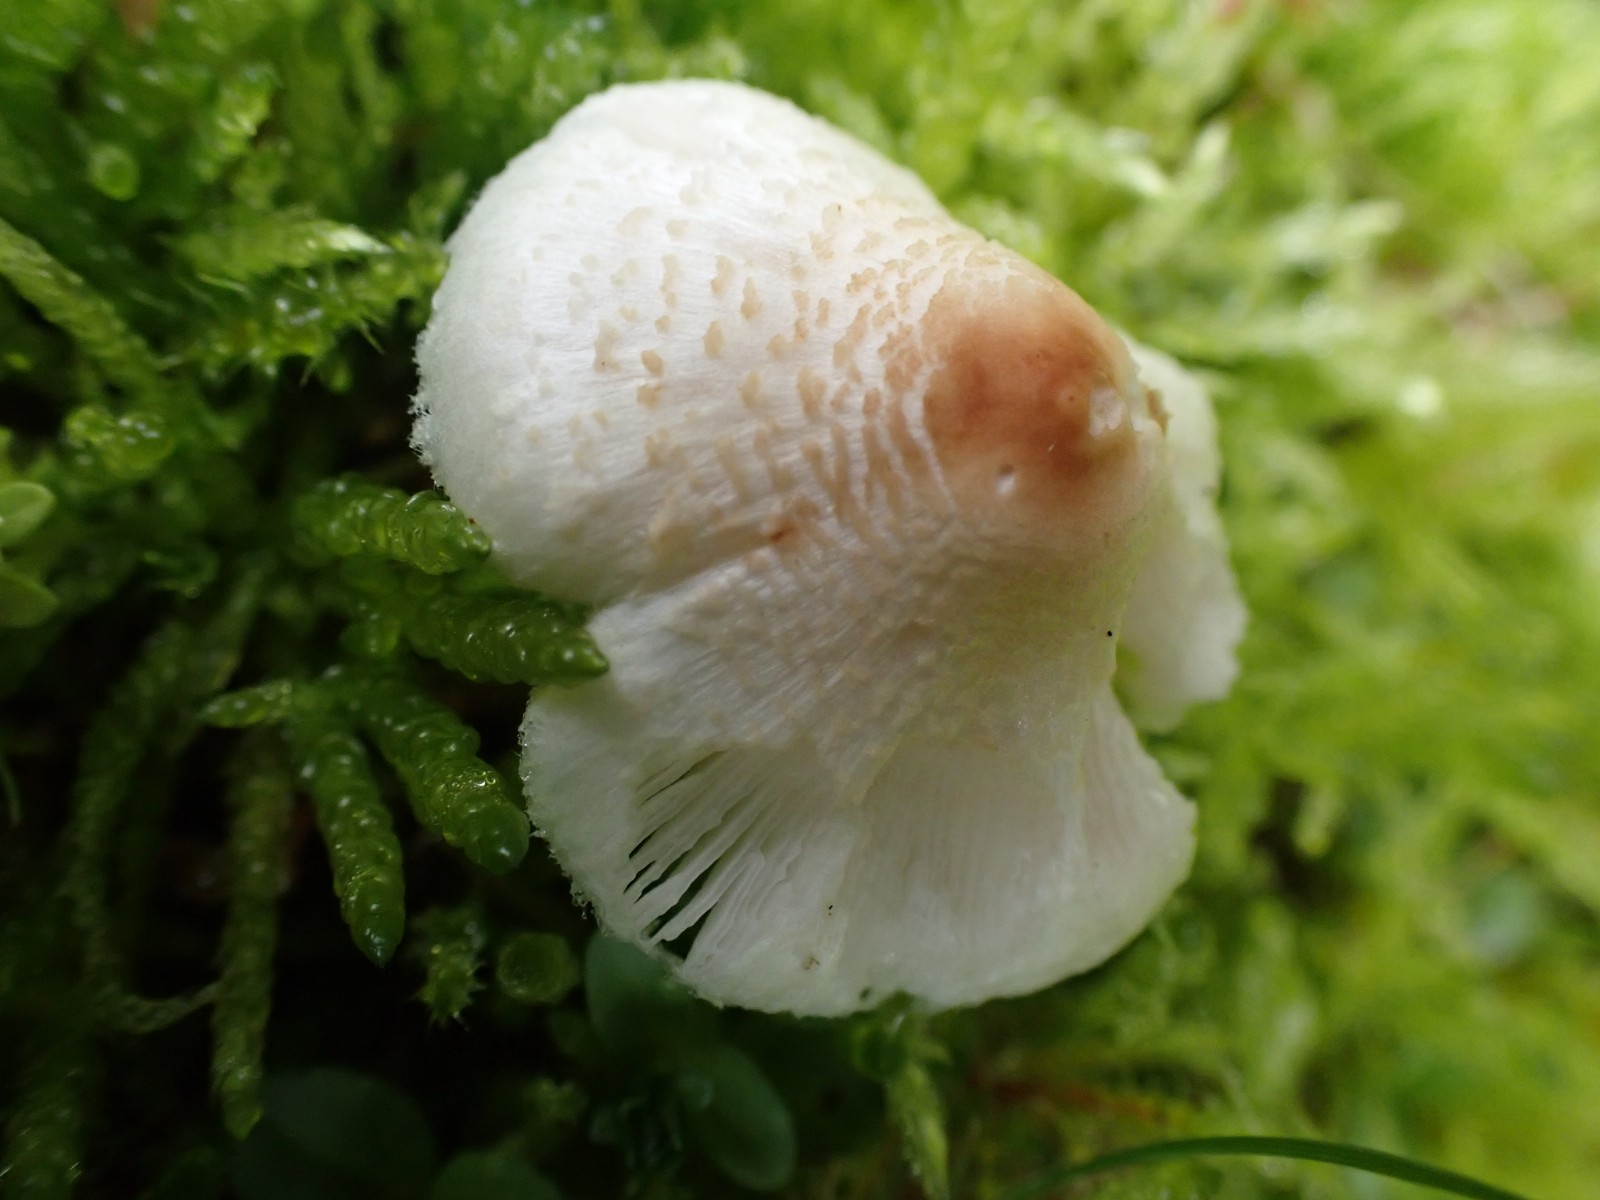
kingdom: Fungi
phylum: Basidiomycota
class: Agaricomycetes
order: Agaricales
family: Agaricaceae
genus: Lepiota
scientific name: Lepiota cristata
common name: stinkende parasolhat
